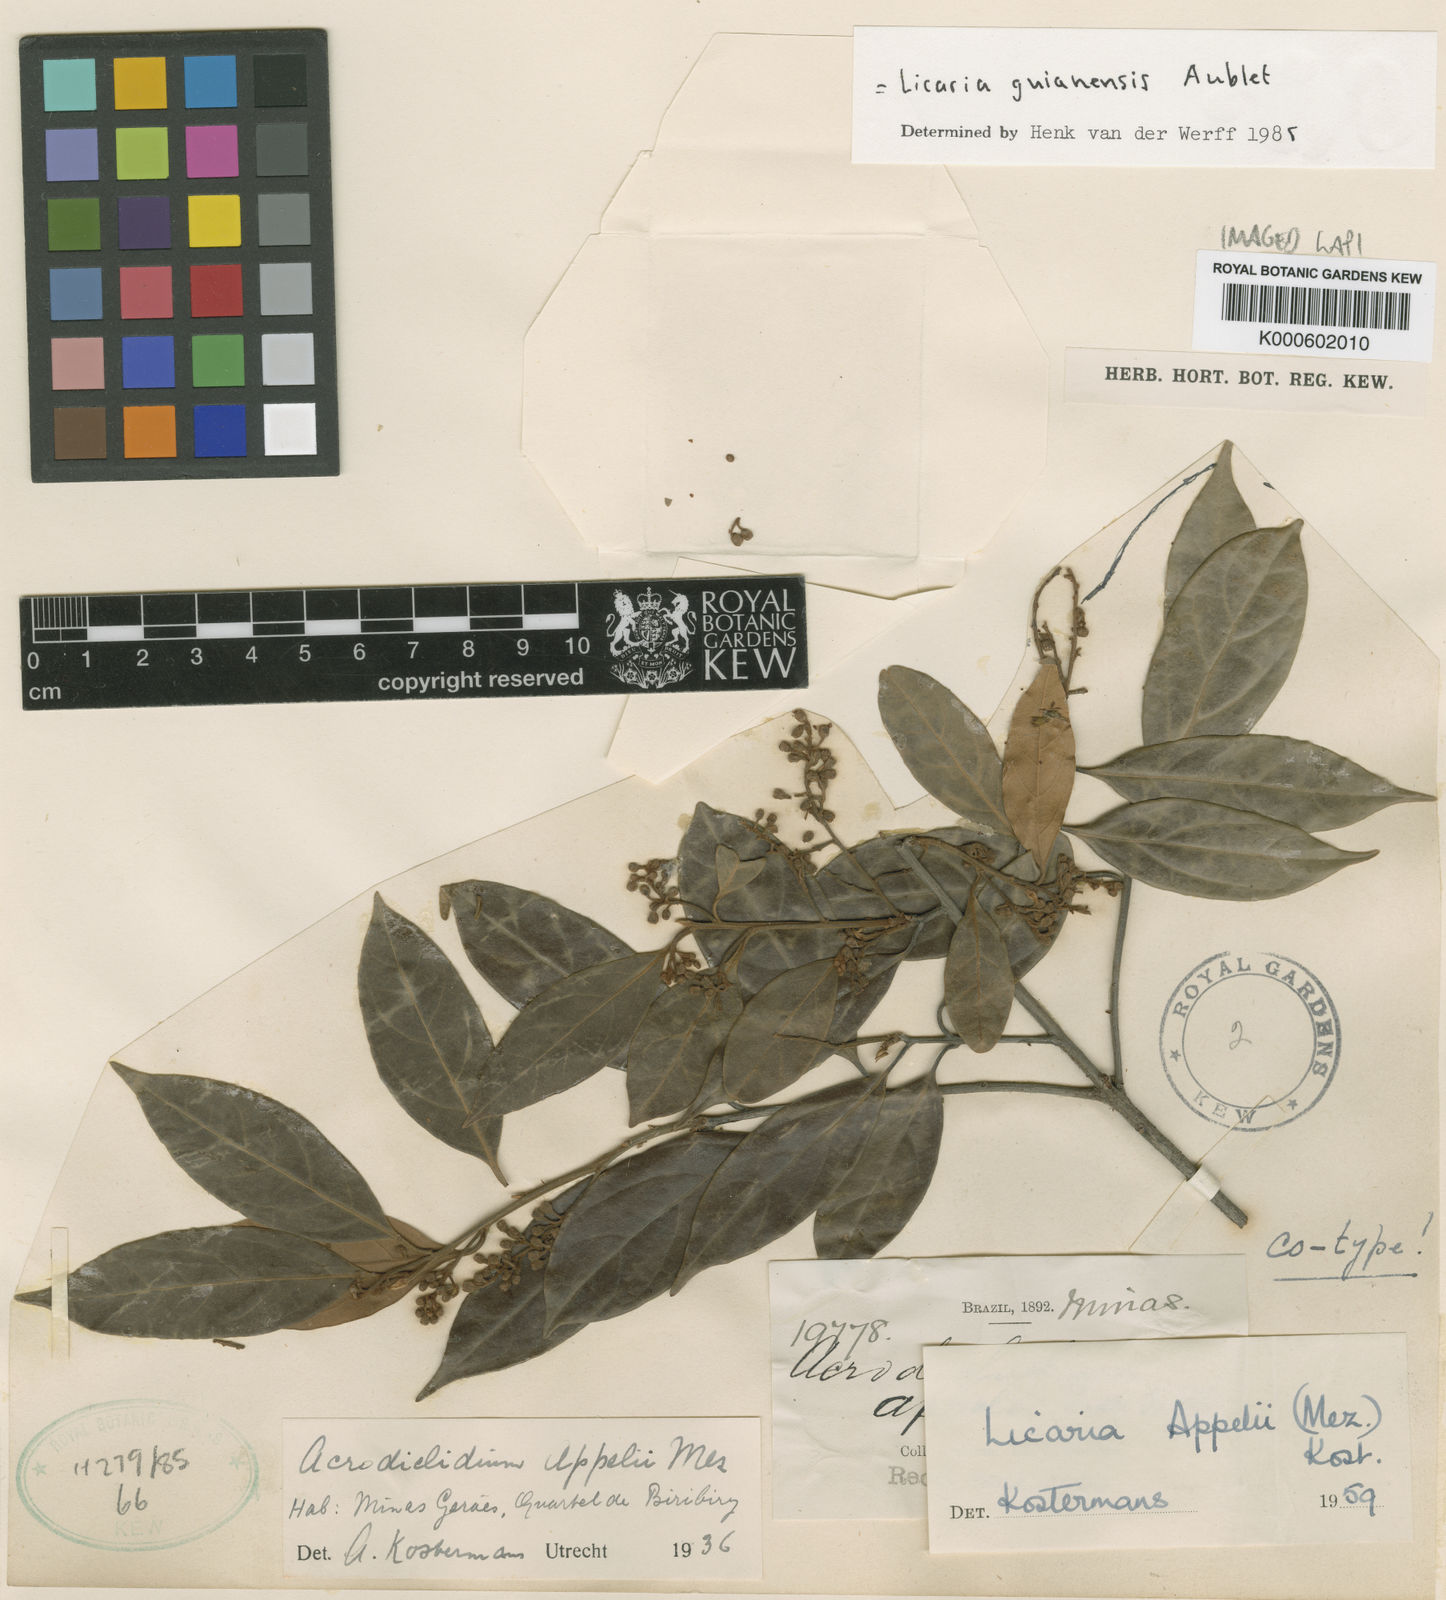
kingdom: Plantae
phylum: Tracheophyta
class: Magnoliopsida
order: Laurales
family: Lauraceae
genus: Licaria
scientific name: Licaria guianensis
